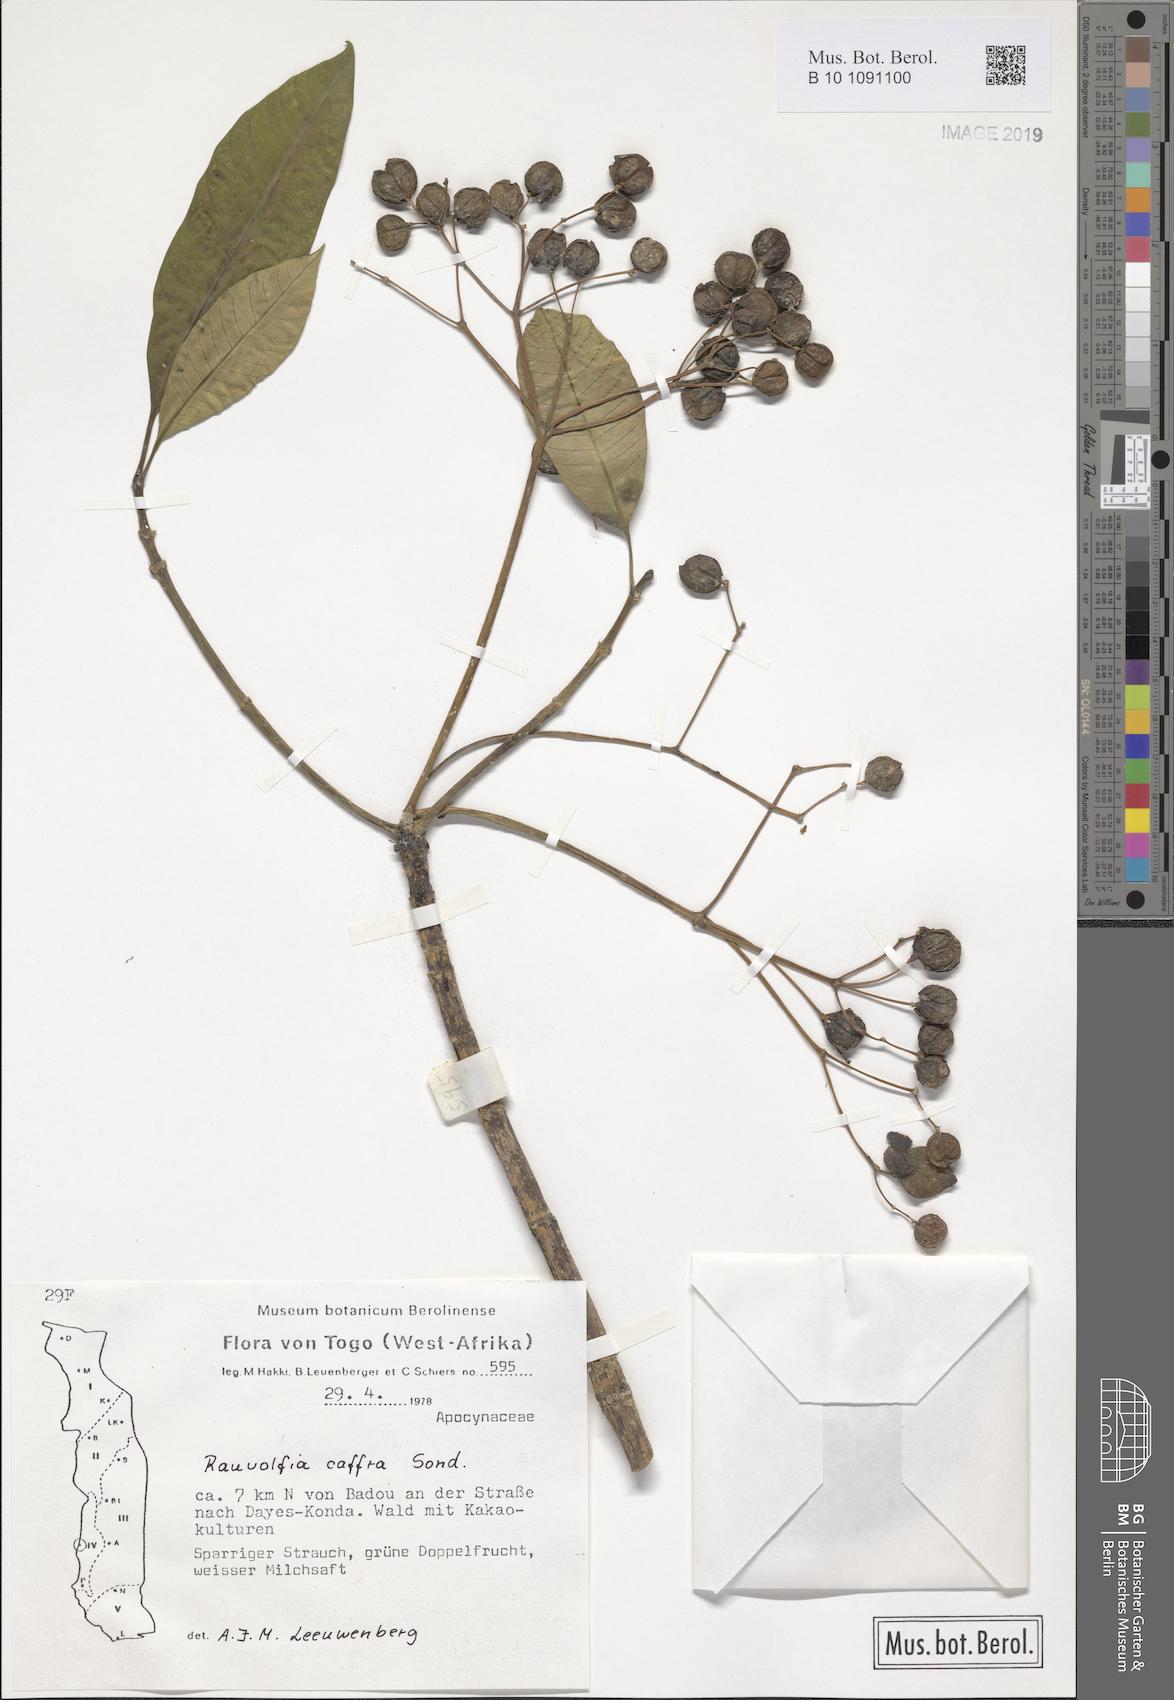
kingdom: Plantae
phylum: Tracheophyta
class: Magnoliopsida
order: Gentianales
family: Apocynaceae
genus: Rauvolfia
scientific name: Rauvolfia caffra
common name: Quininetree
